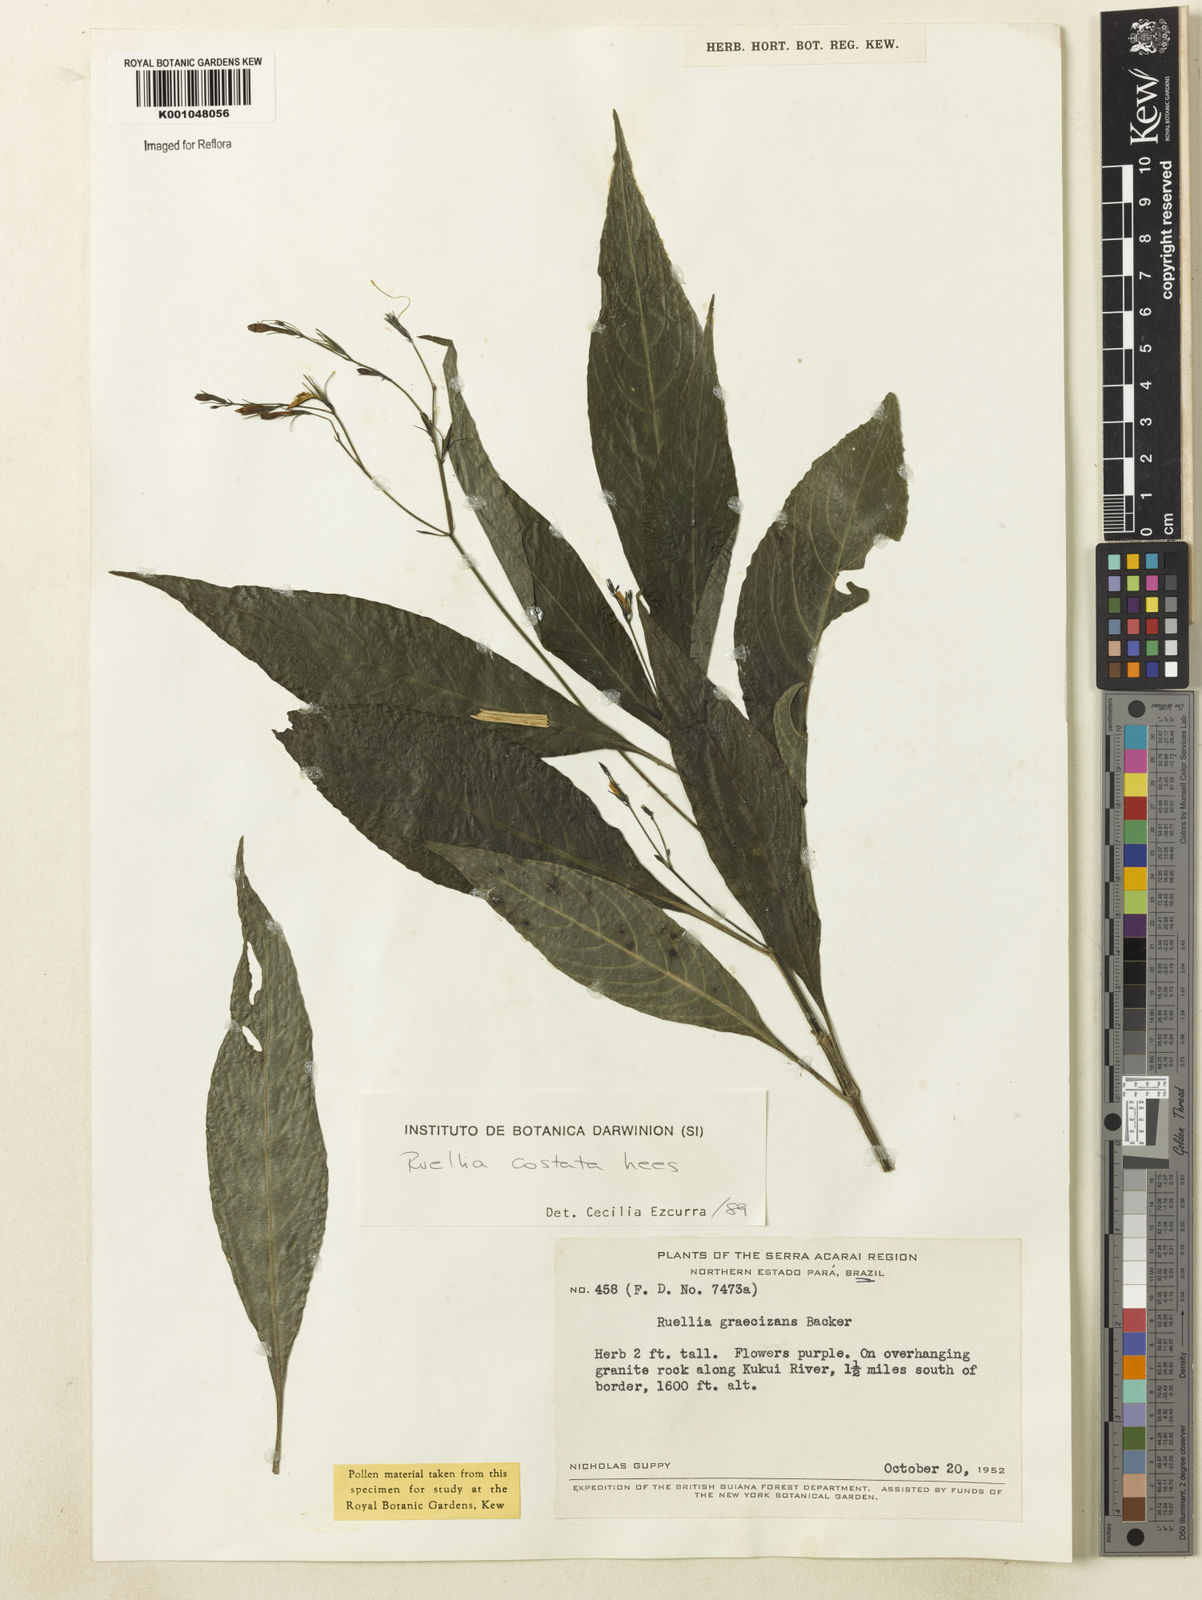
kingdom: Plantae
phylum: Tracheophyta
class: Magnoliopsida
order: Lamiales
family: Acanthaceae
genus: Ruellia
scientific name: Ruellia costata
